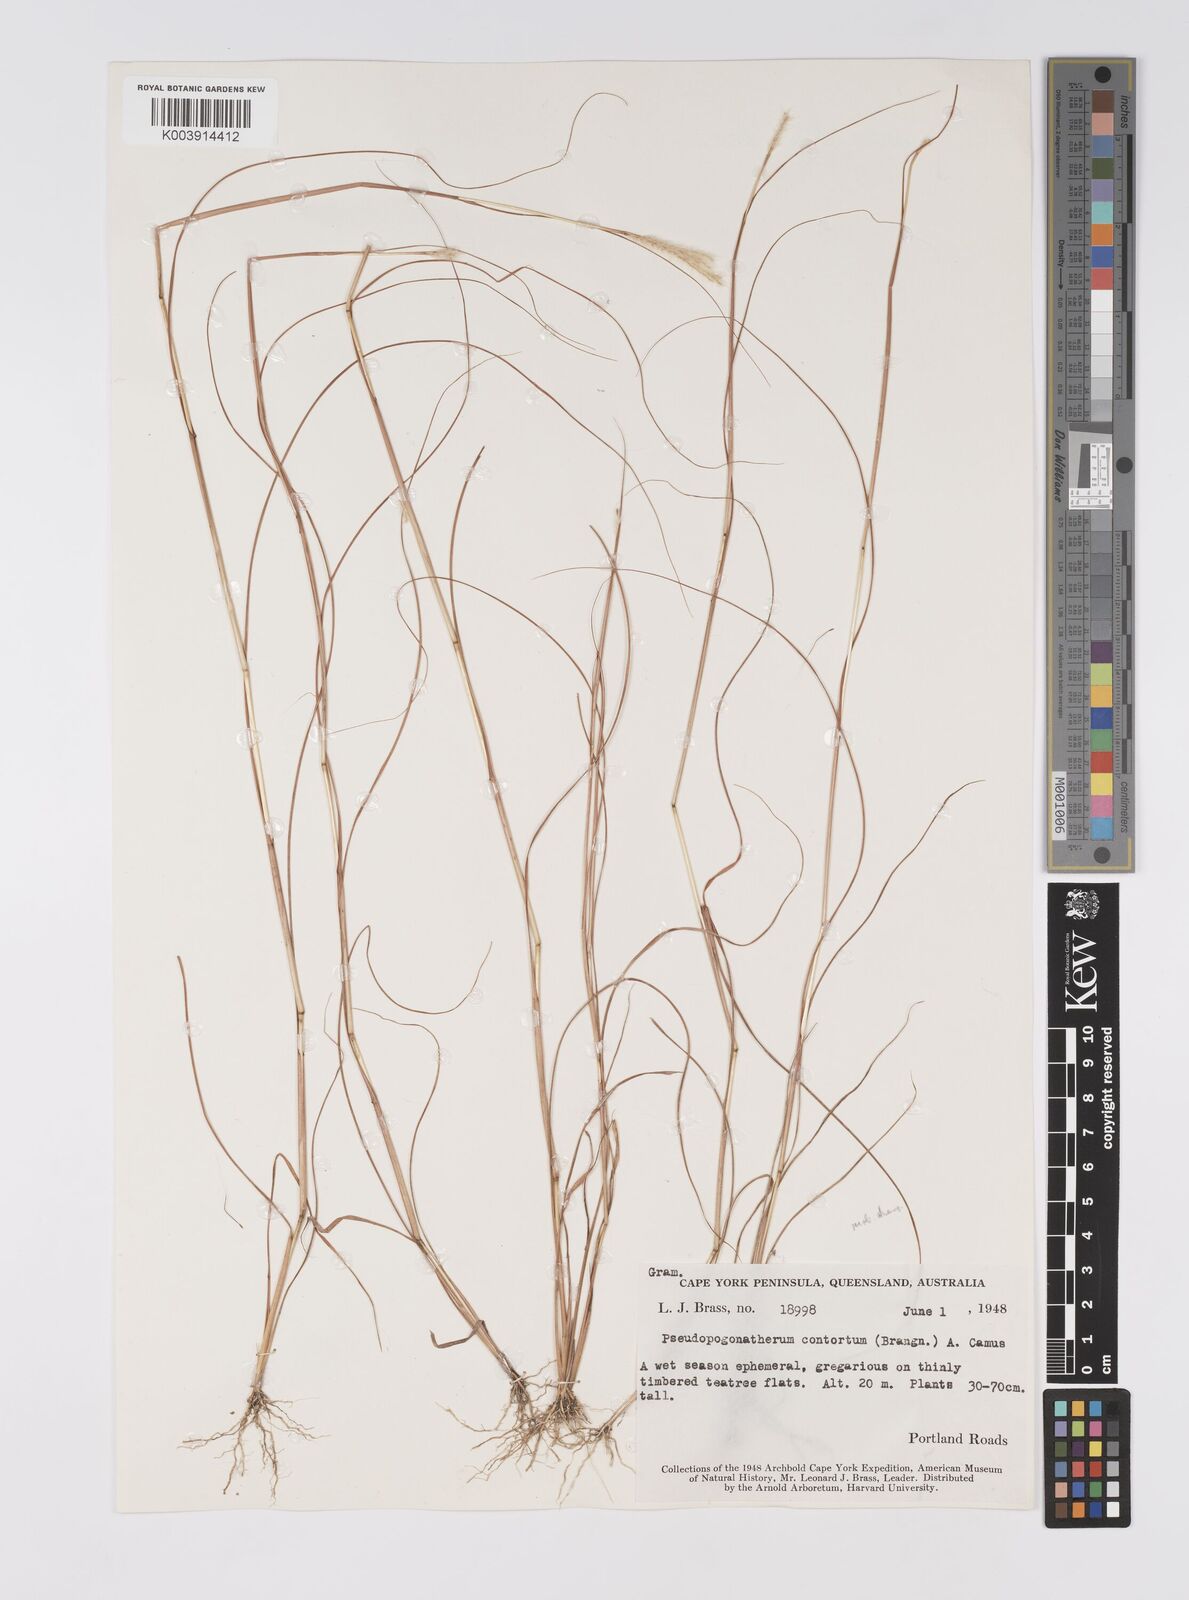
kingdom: Plantae
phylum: Tracheophyta
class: Liliopsida
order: Poales
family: Poaceae
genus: Pseudopogonatherum
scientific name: Pseudopogonatherum contortum
